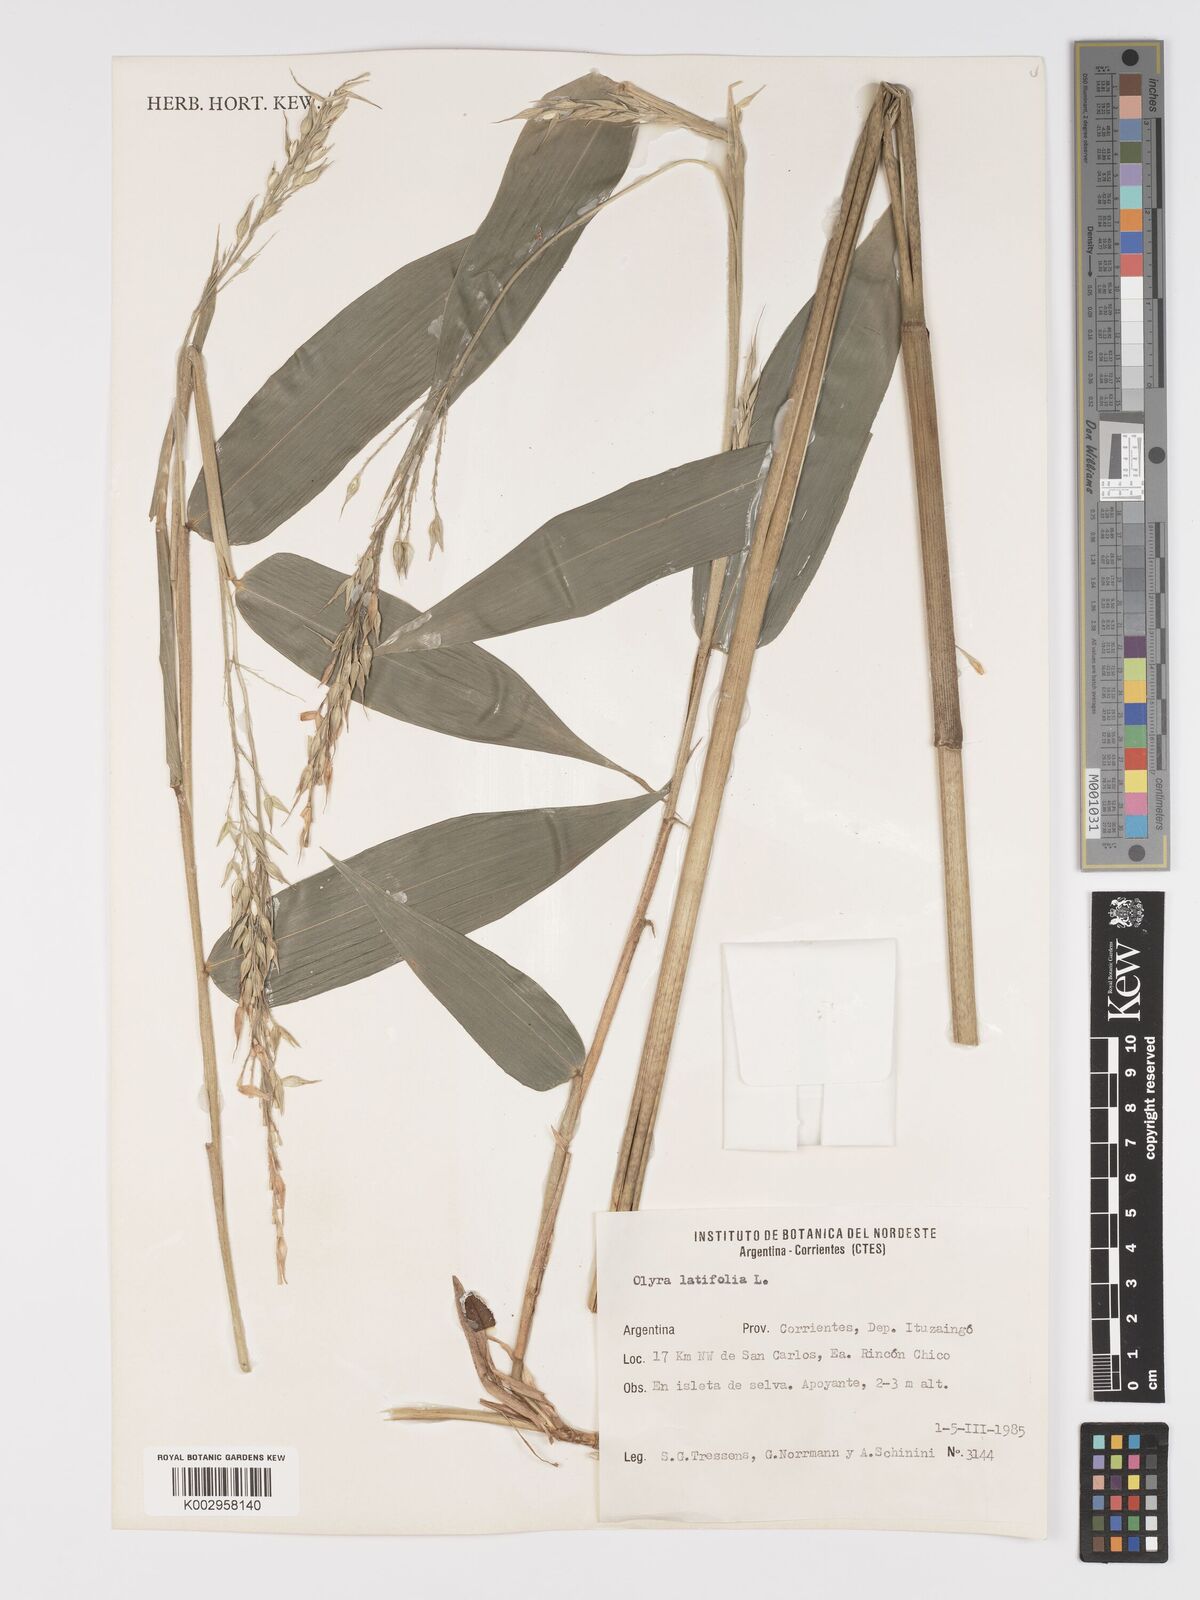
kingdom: Plantae
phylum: Tracheophyta
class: Liliopsida
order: Poales
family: Poaceae
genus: Olyra
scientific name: Olyra latifolia
